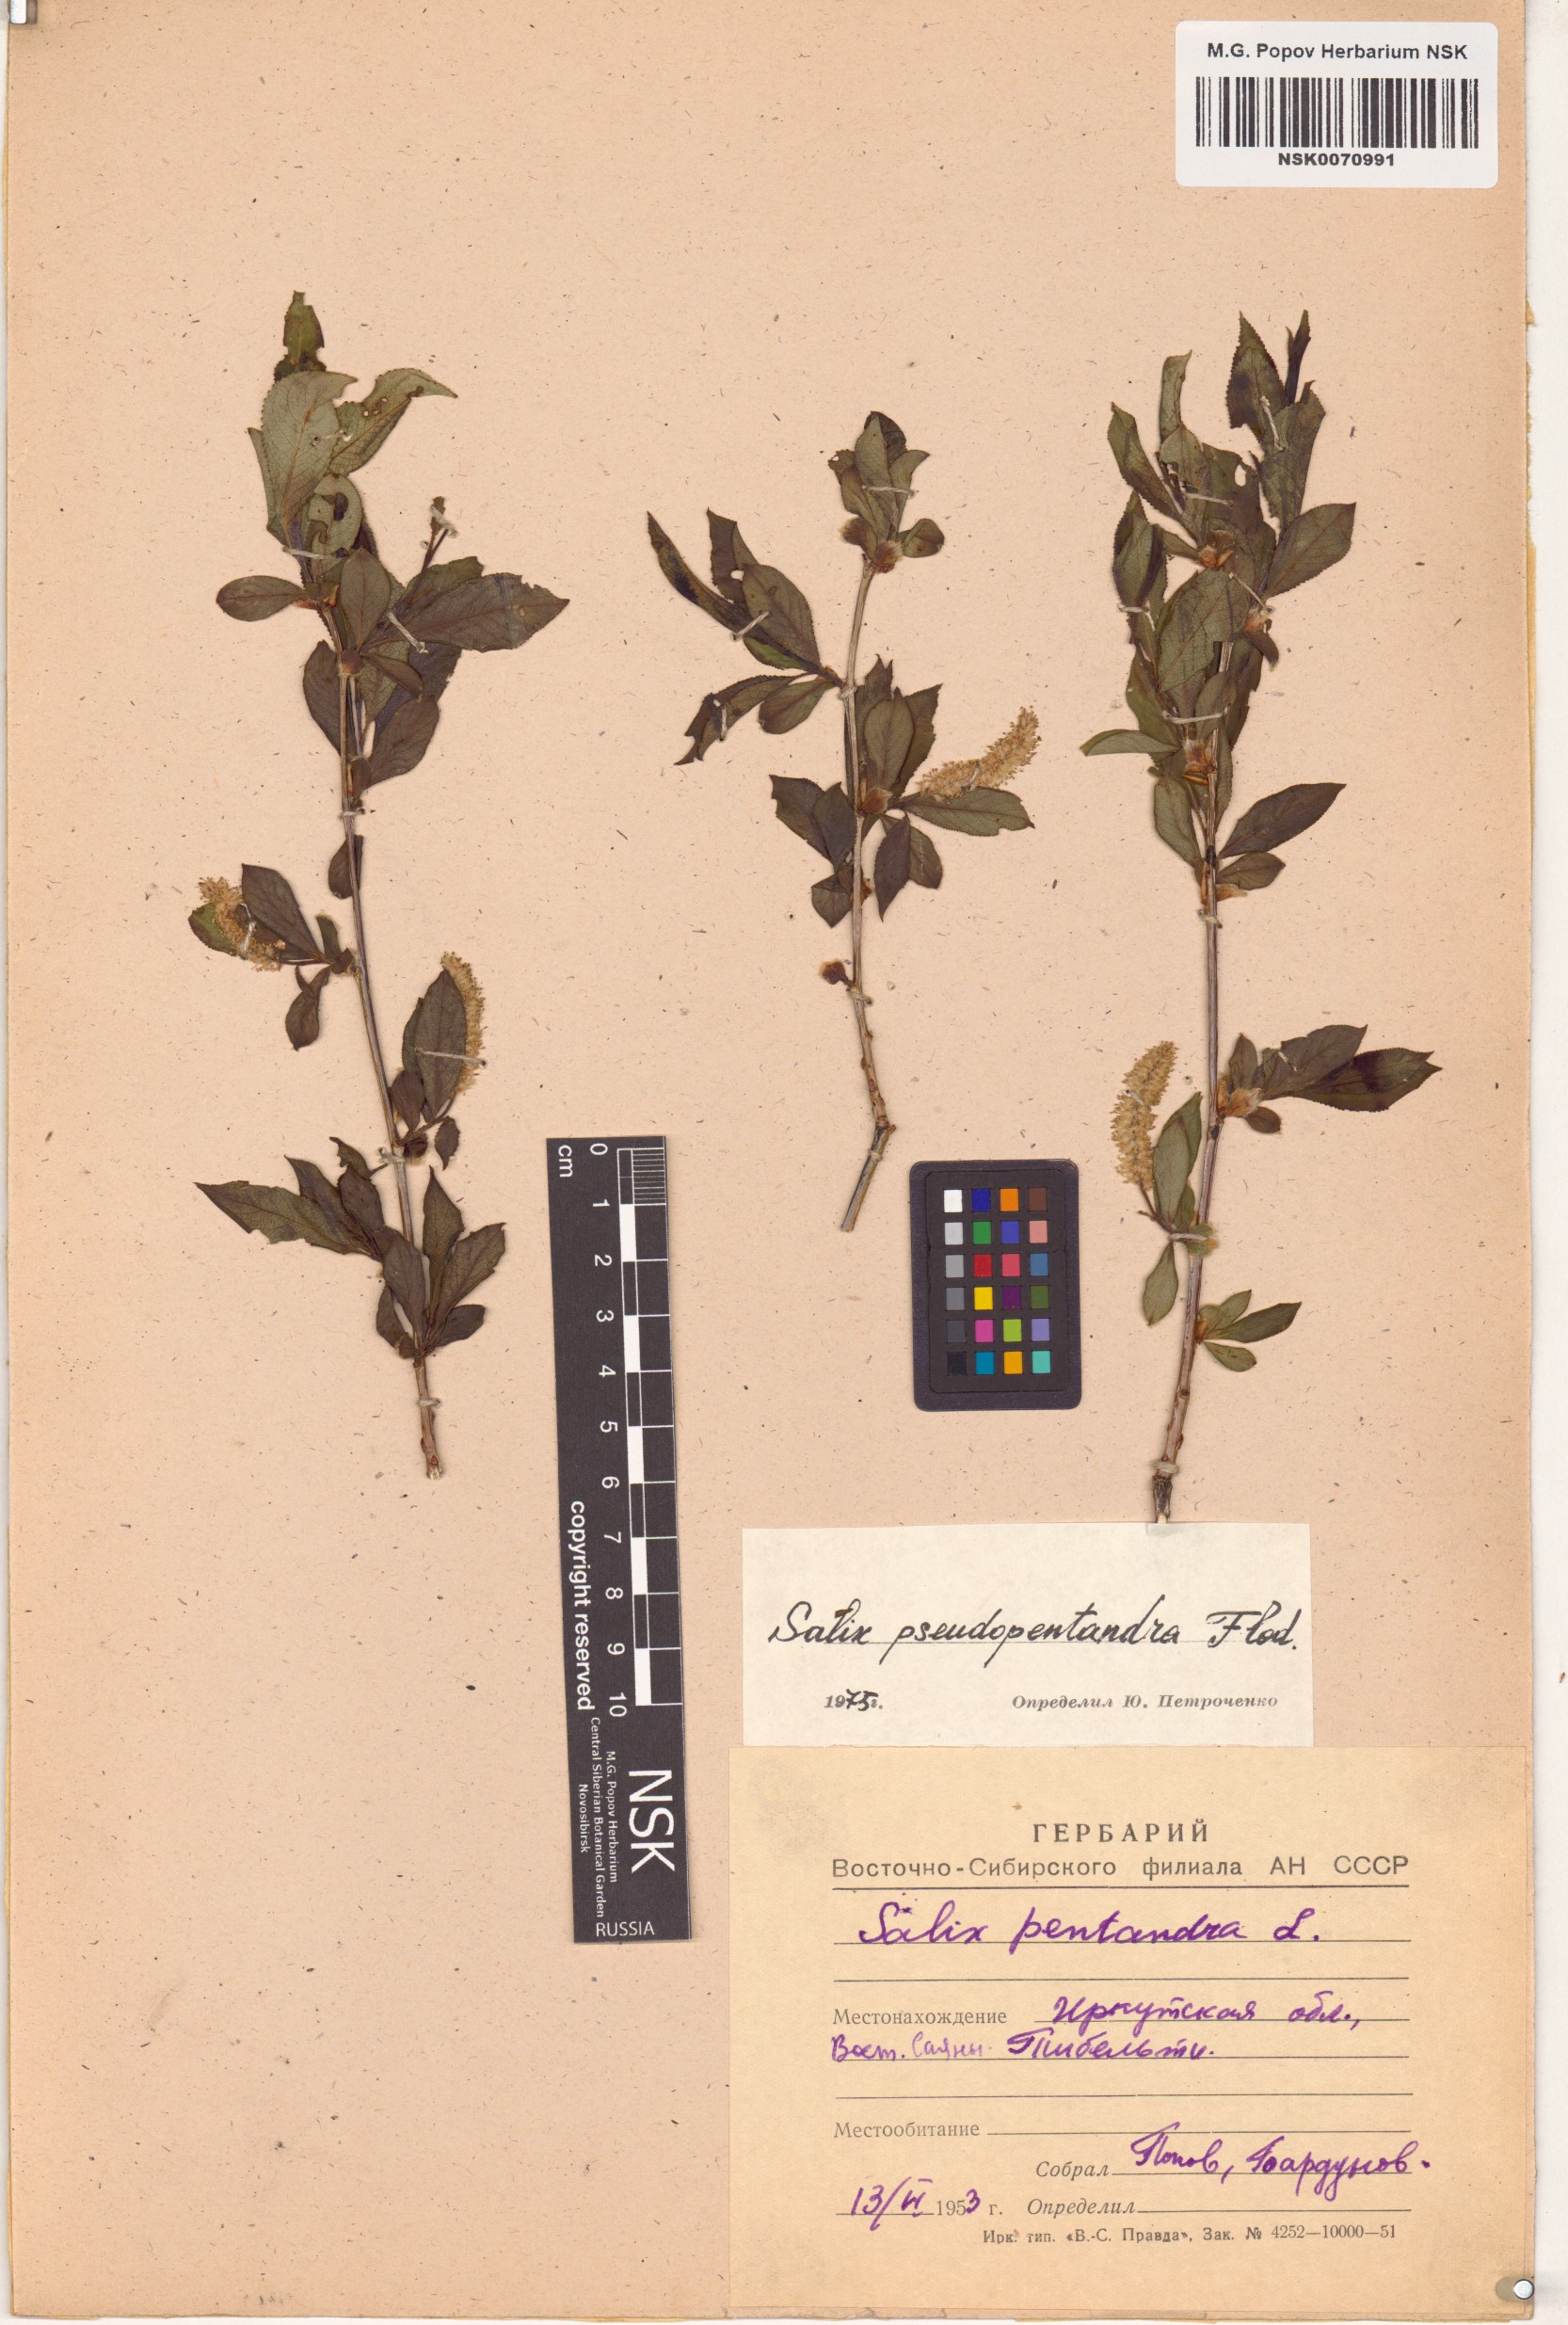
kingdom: Plantae
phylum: Tracheophyta
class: Magnoliopsida
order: Malpighiales
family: Salicaceae
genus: Salix
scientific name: Salix pseudopentandra
